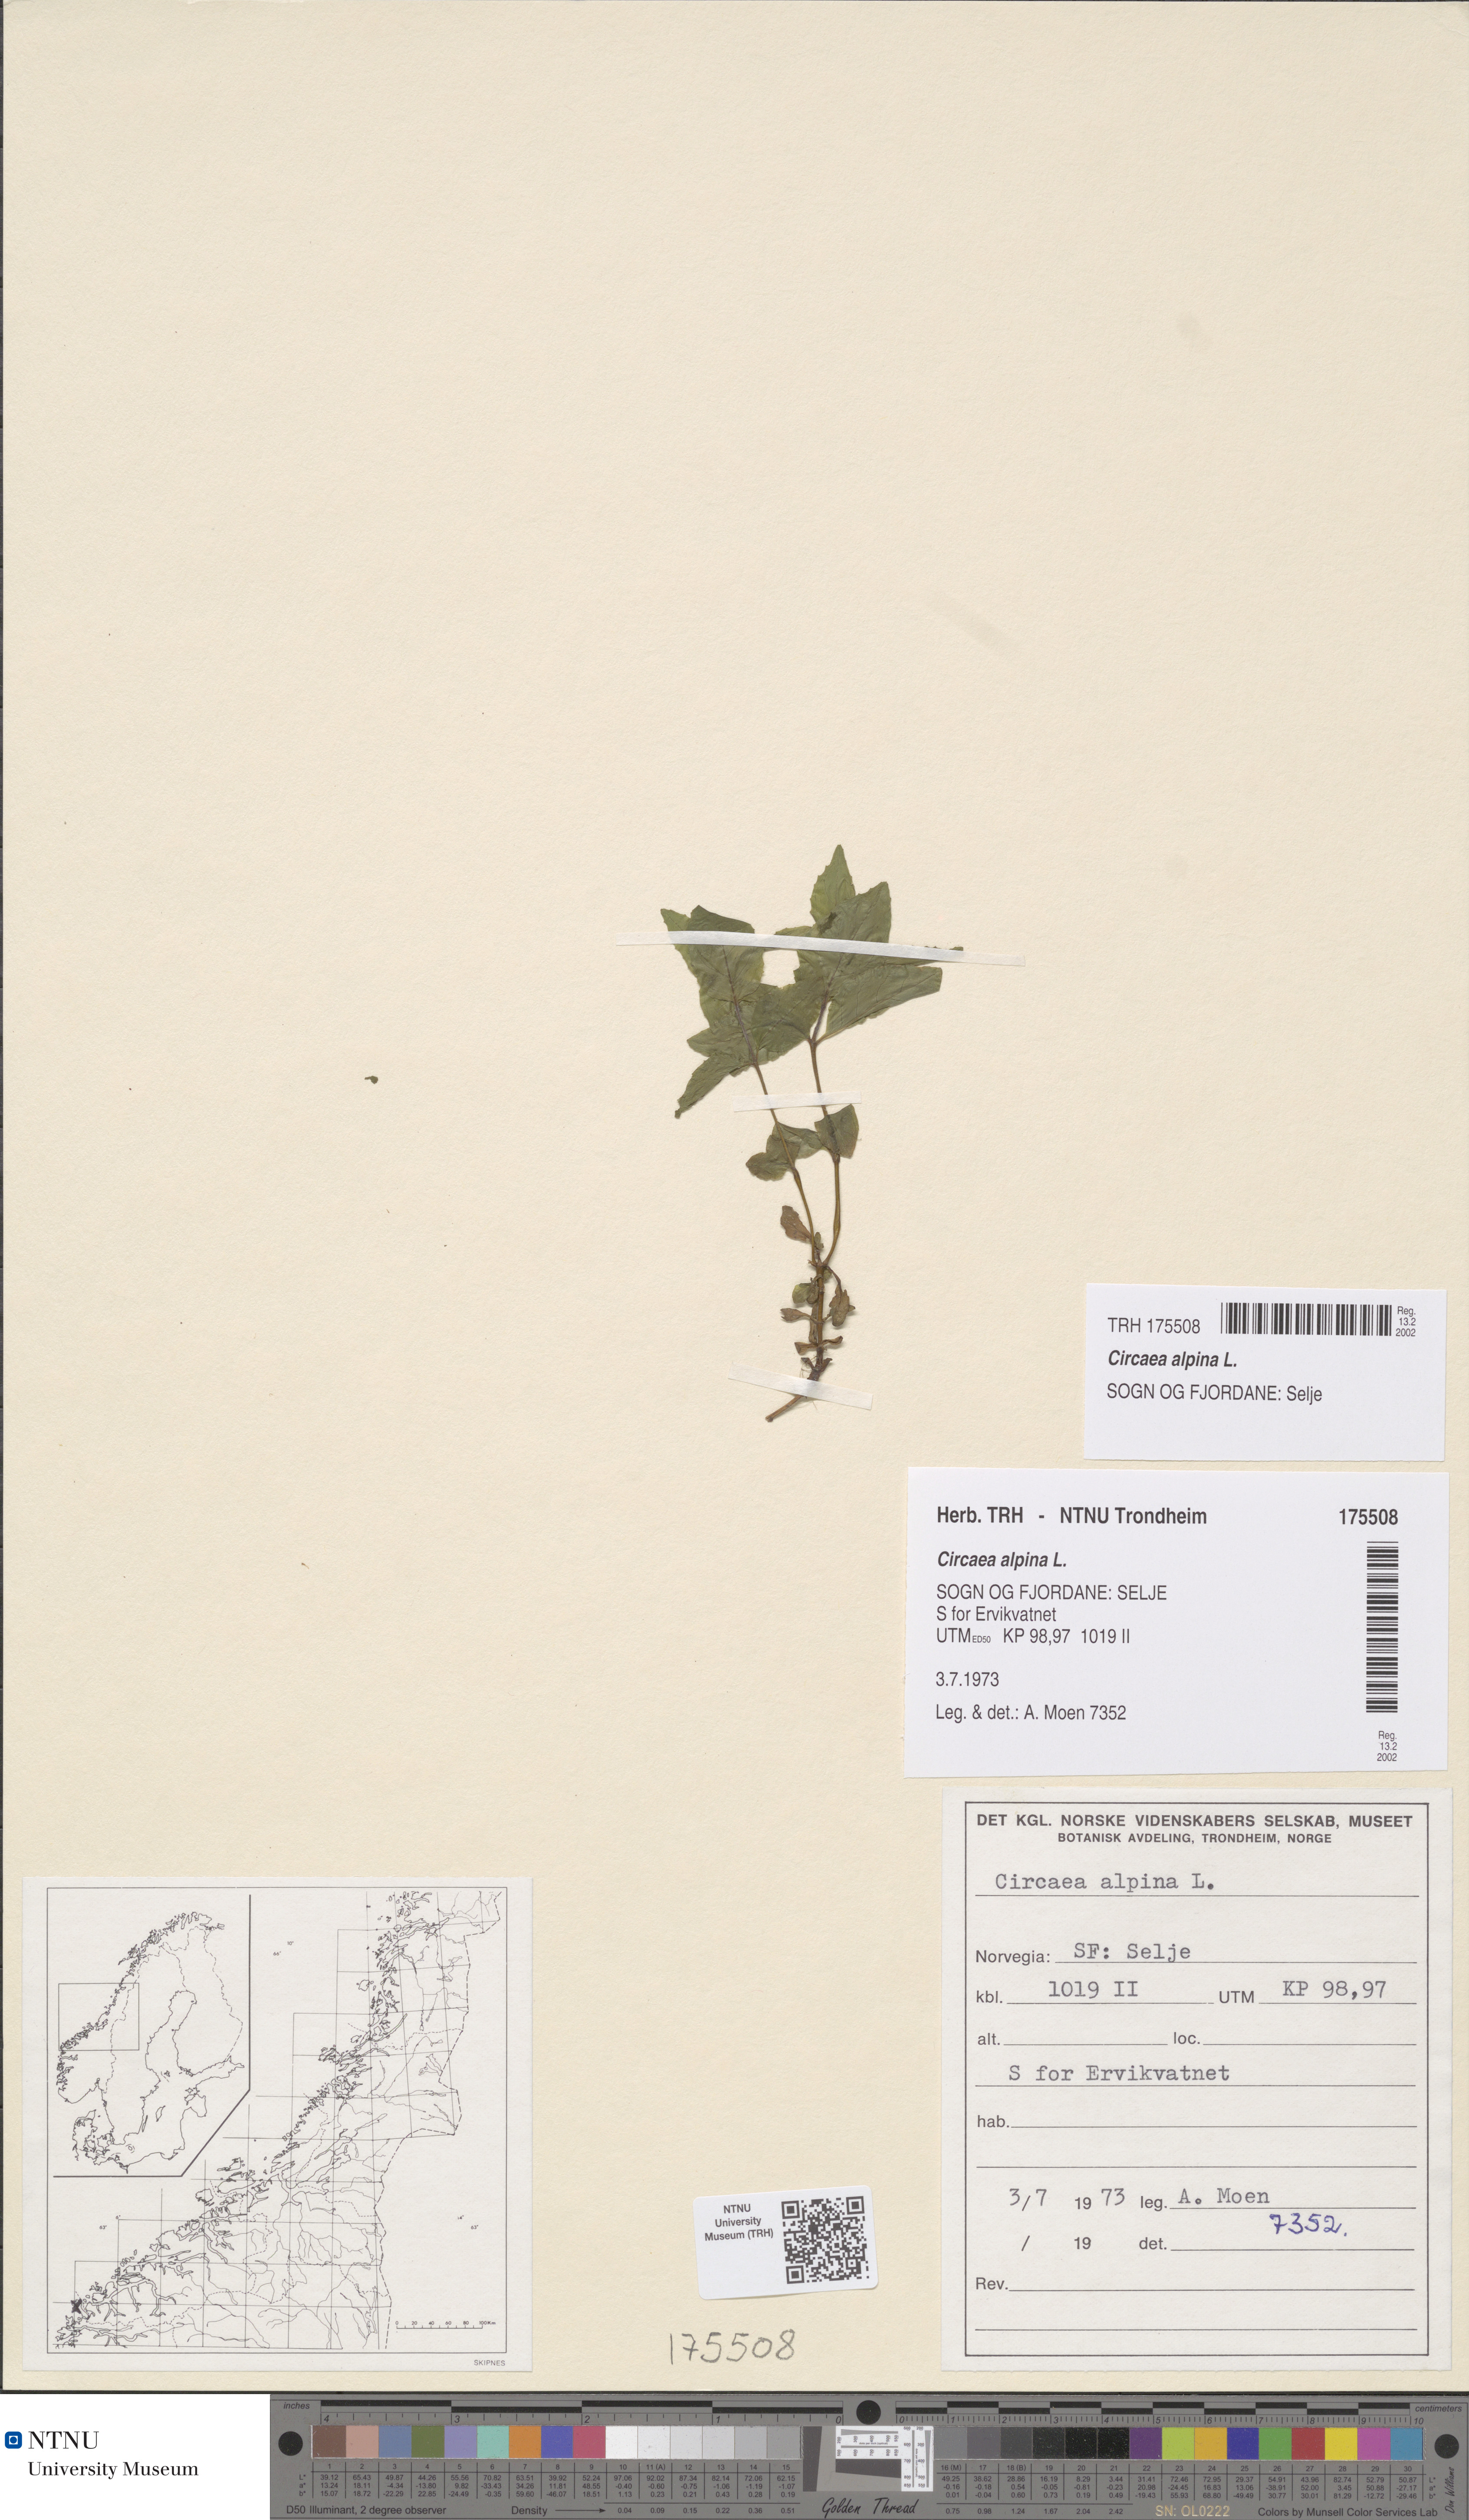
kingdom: Plantae
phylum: Tracheophyta
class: Magnoliopsida
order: Myrtales
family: Onagraceae
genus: Circaea
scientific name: Circaea alpina
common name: Alpine enchanter's-nightshade
